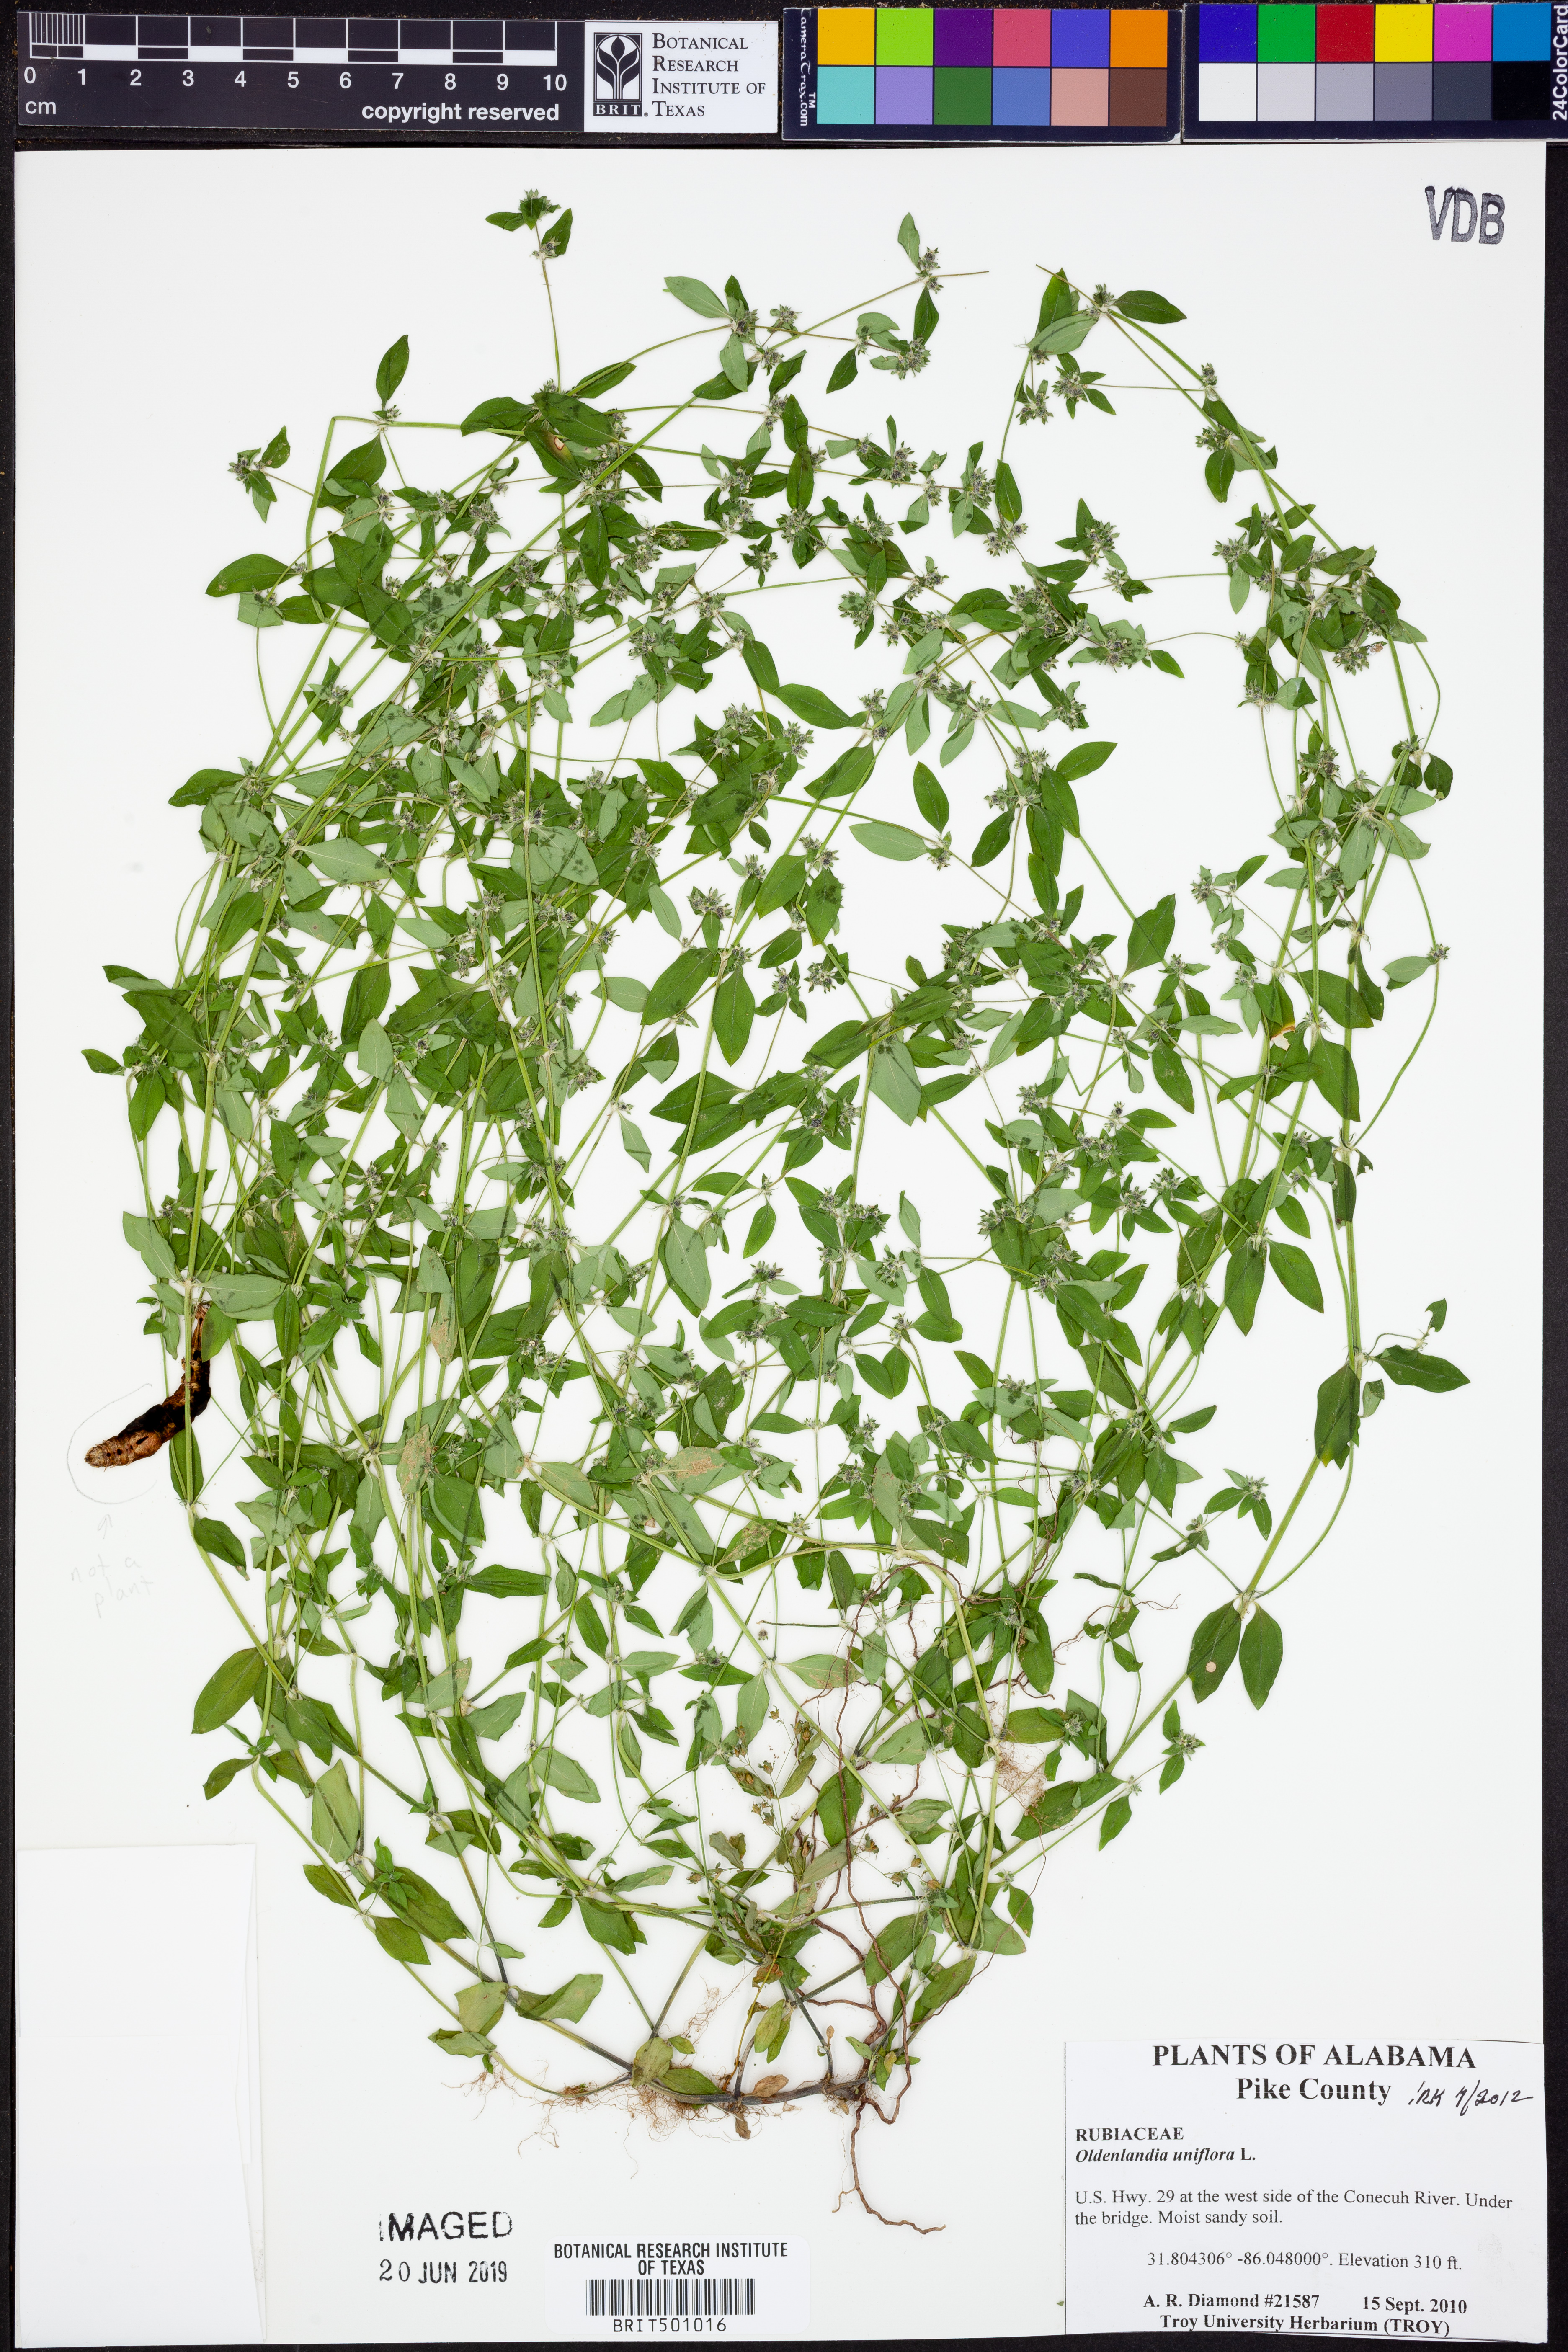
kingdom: Plantae
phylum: Tracheophyta
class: Magnoliopsida
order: Gentianales
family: Rubiaceae
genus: Edrastima
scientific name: Edrastima uniflora
